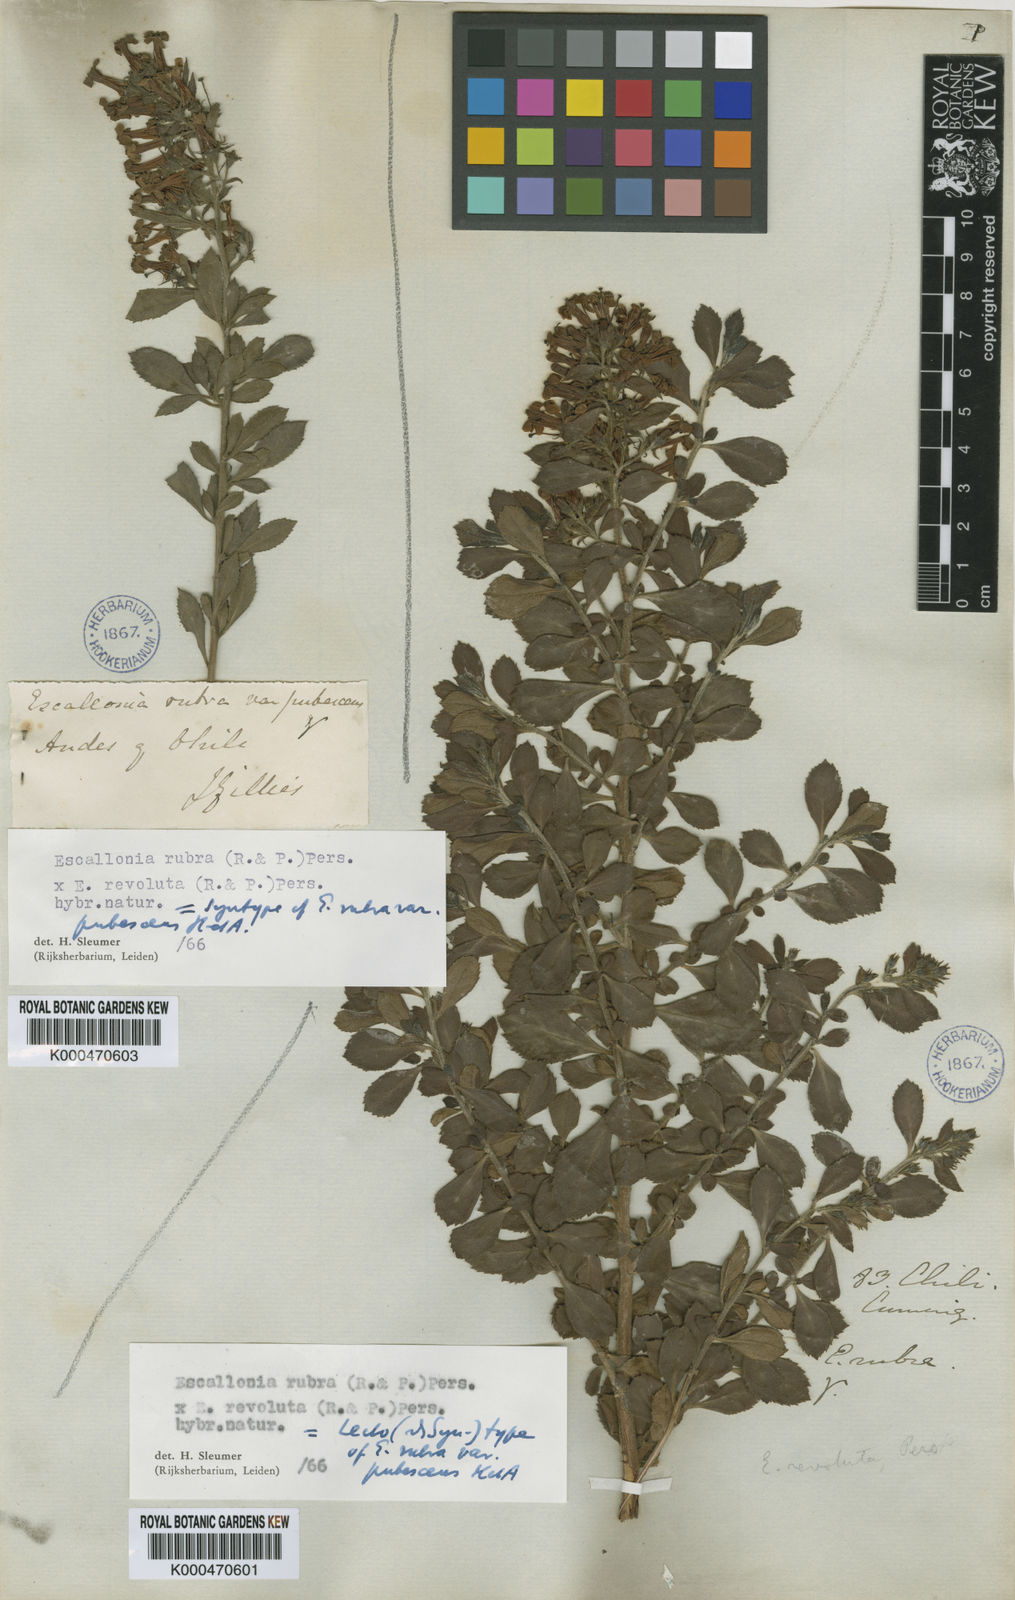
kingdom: Plantae
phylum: Tracheophyta
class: Magnoliopsida
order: Escalloniales
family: Escalloniaceae
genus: Escallonia
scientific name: Escallonia rubra
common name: Redclaws
